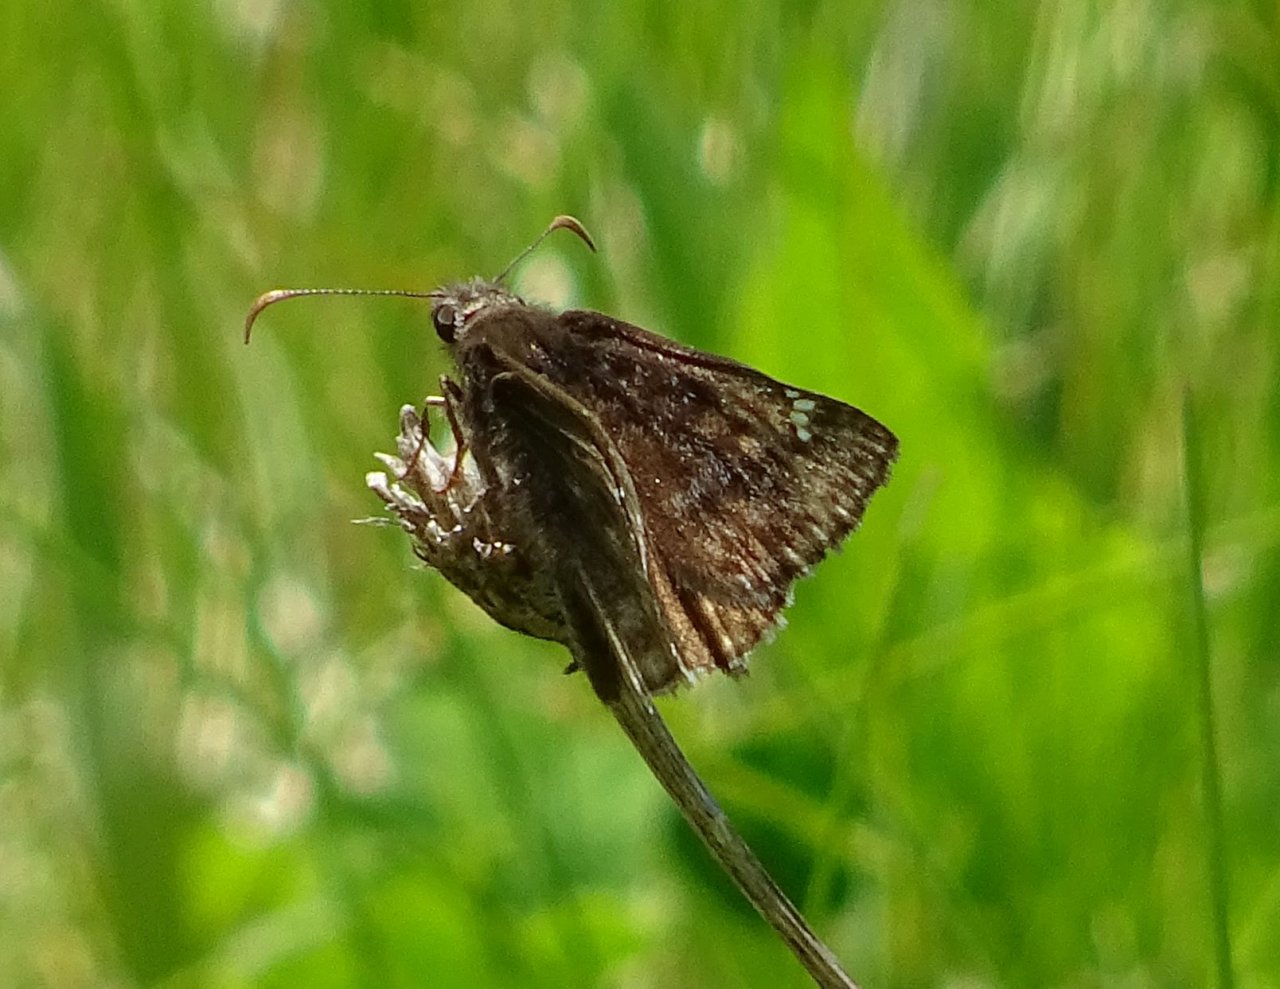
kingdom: Animalia
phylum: Arthropoda
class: Insecta
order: Lepidoptera
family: Hesperiidae
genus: Gesta
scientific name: Gesta
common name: Wild Indigo Duskywing
